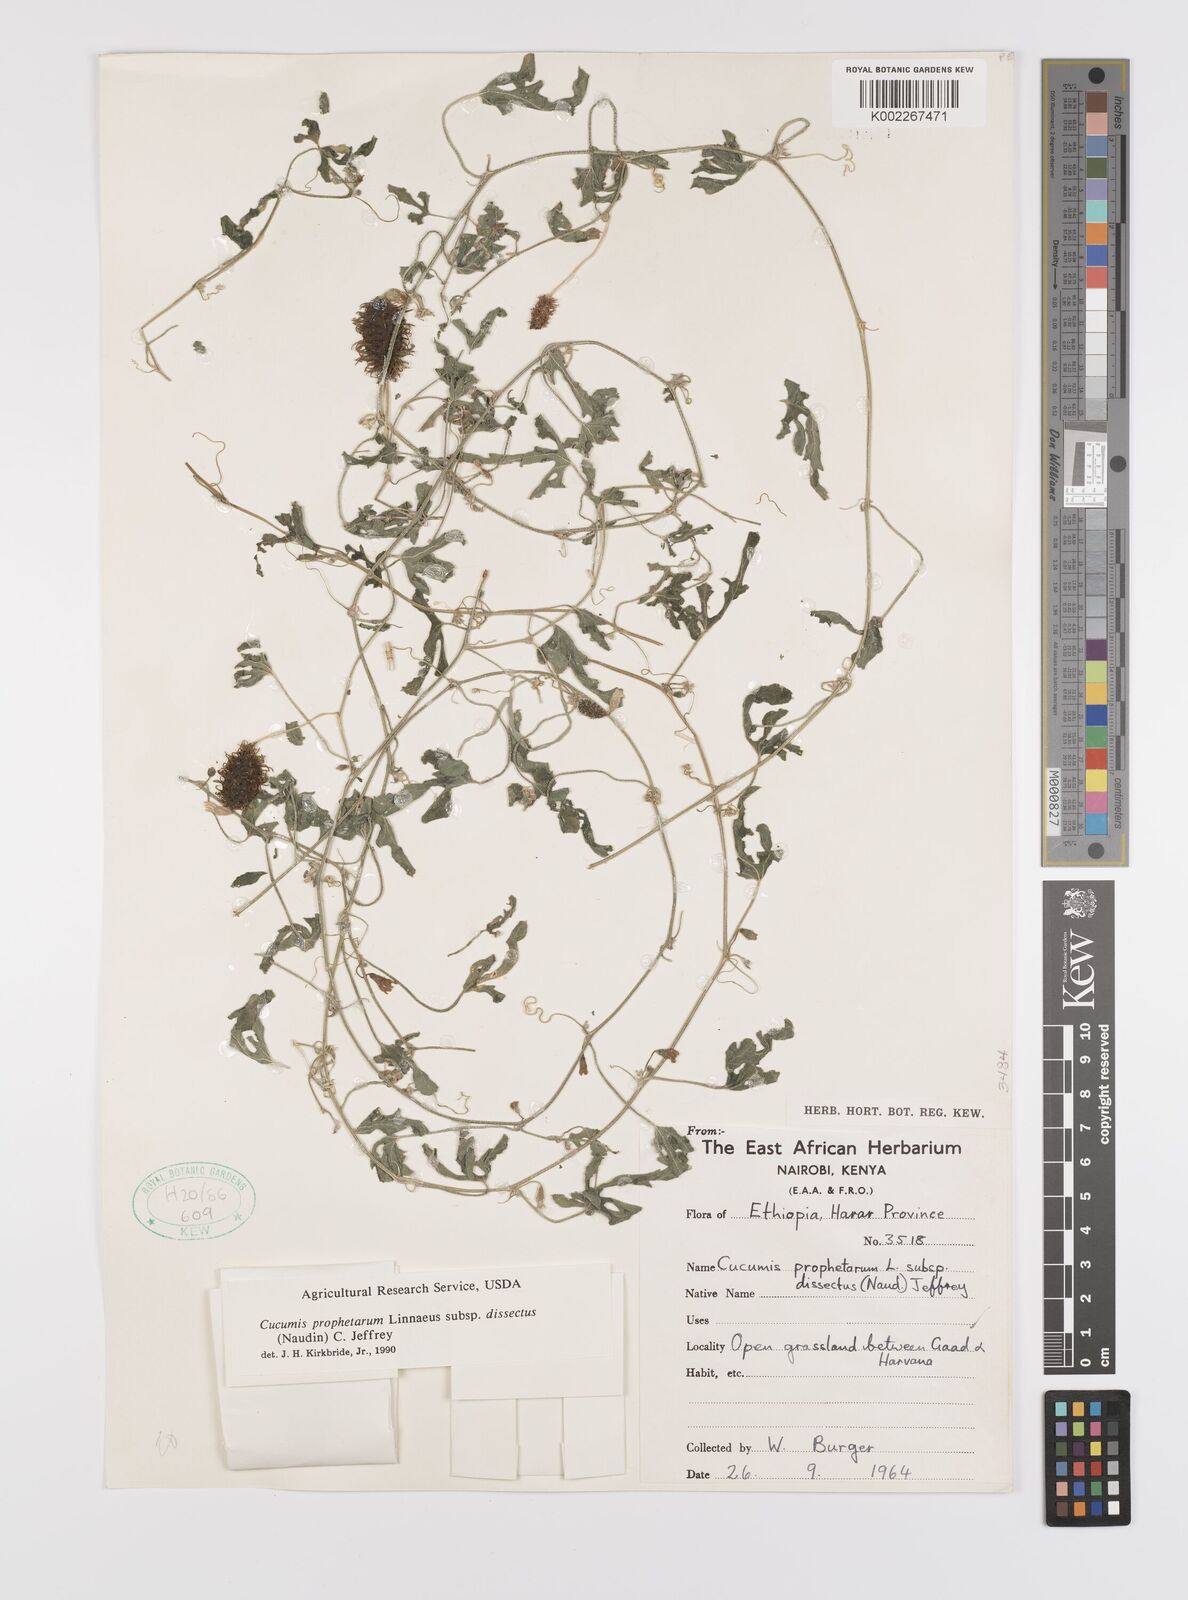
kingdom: Plantae
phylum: Tracheophyta
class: Magnoliopsida
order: Cucurbitales
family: Cucurbitaceae
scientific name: Cucurbitaceae
